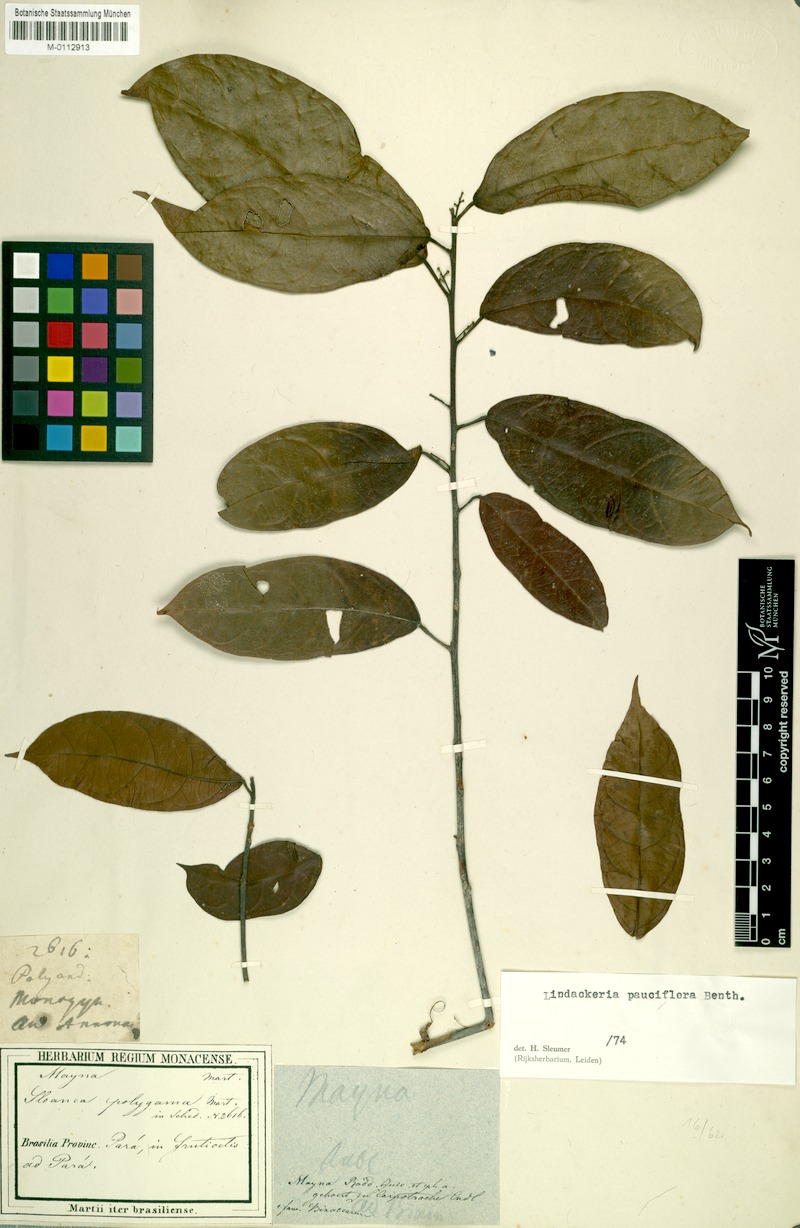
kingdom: Plantae
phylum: Tracheophyta
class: Magnoliopsida
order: Malpighiales
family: Achariaceae
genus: Lindackeria
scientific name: Lindackeria pauciflora
